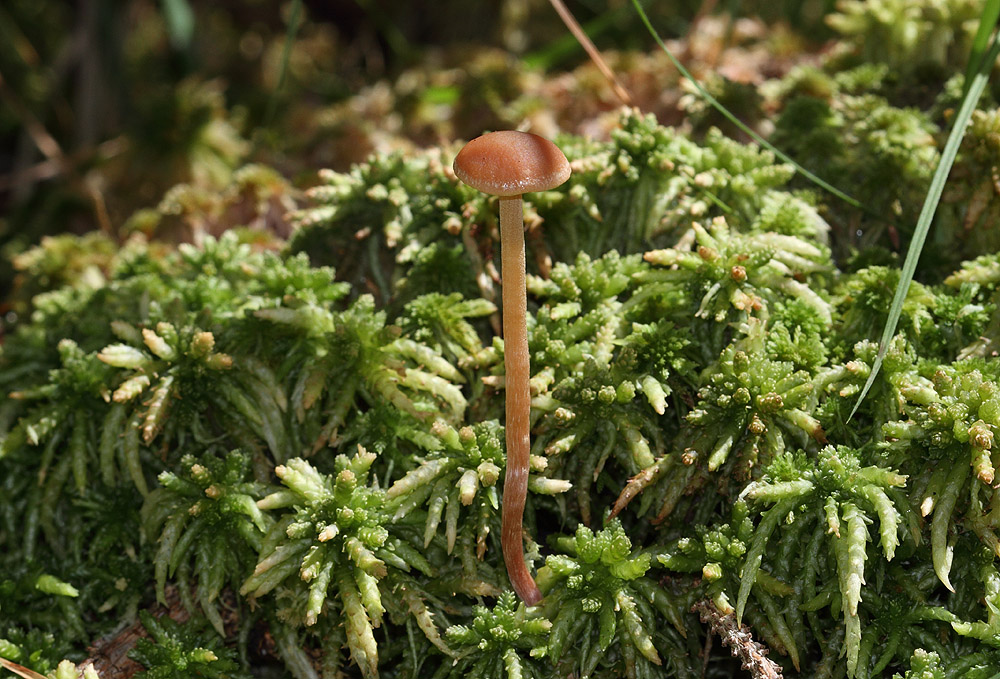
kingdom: Fungi
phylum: Basidiomycota
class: Agaricomycetes
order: Agaricales
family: Strophariaceae
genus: Bogbodia
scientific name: Bogbodia uda
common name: tørve-svovlhat
